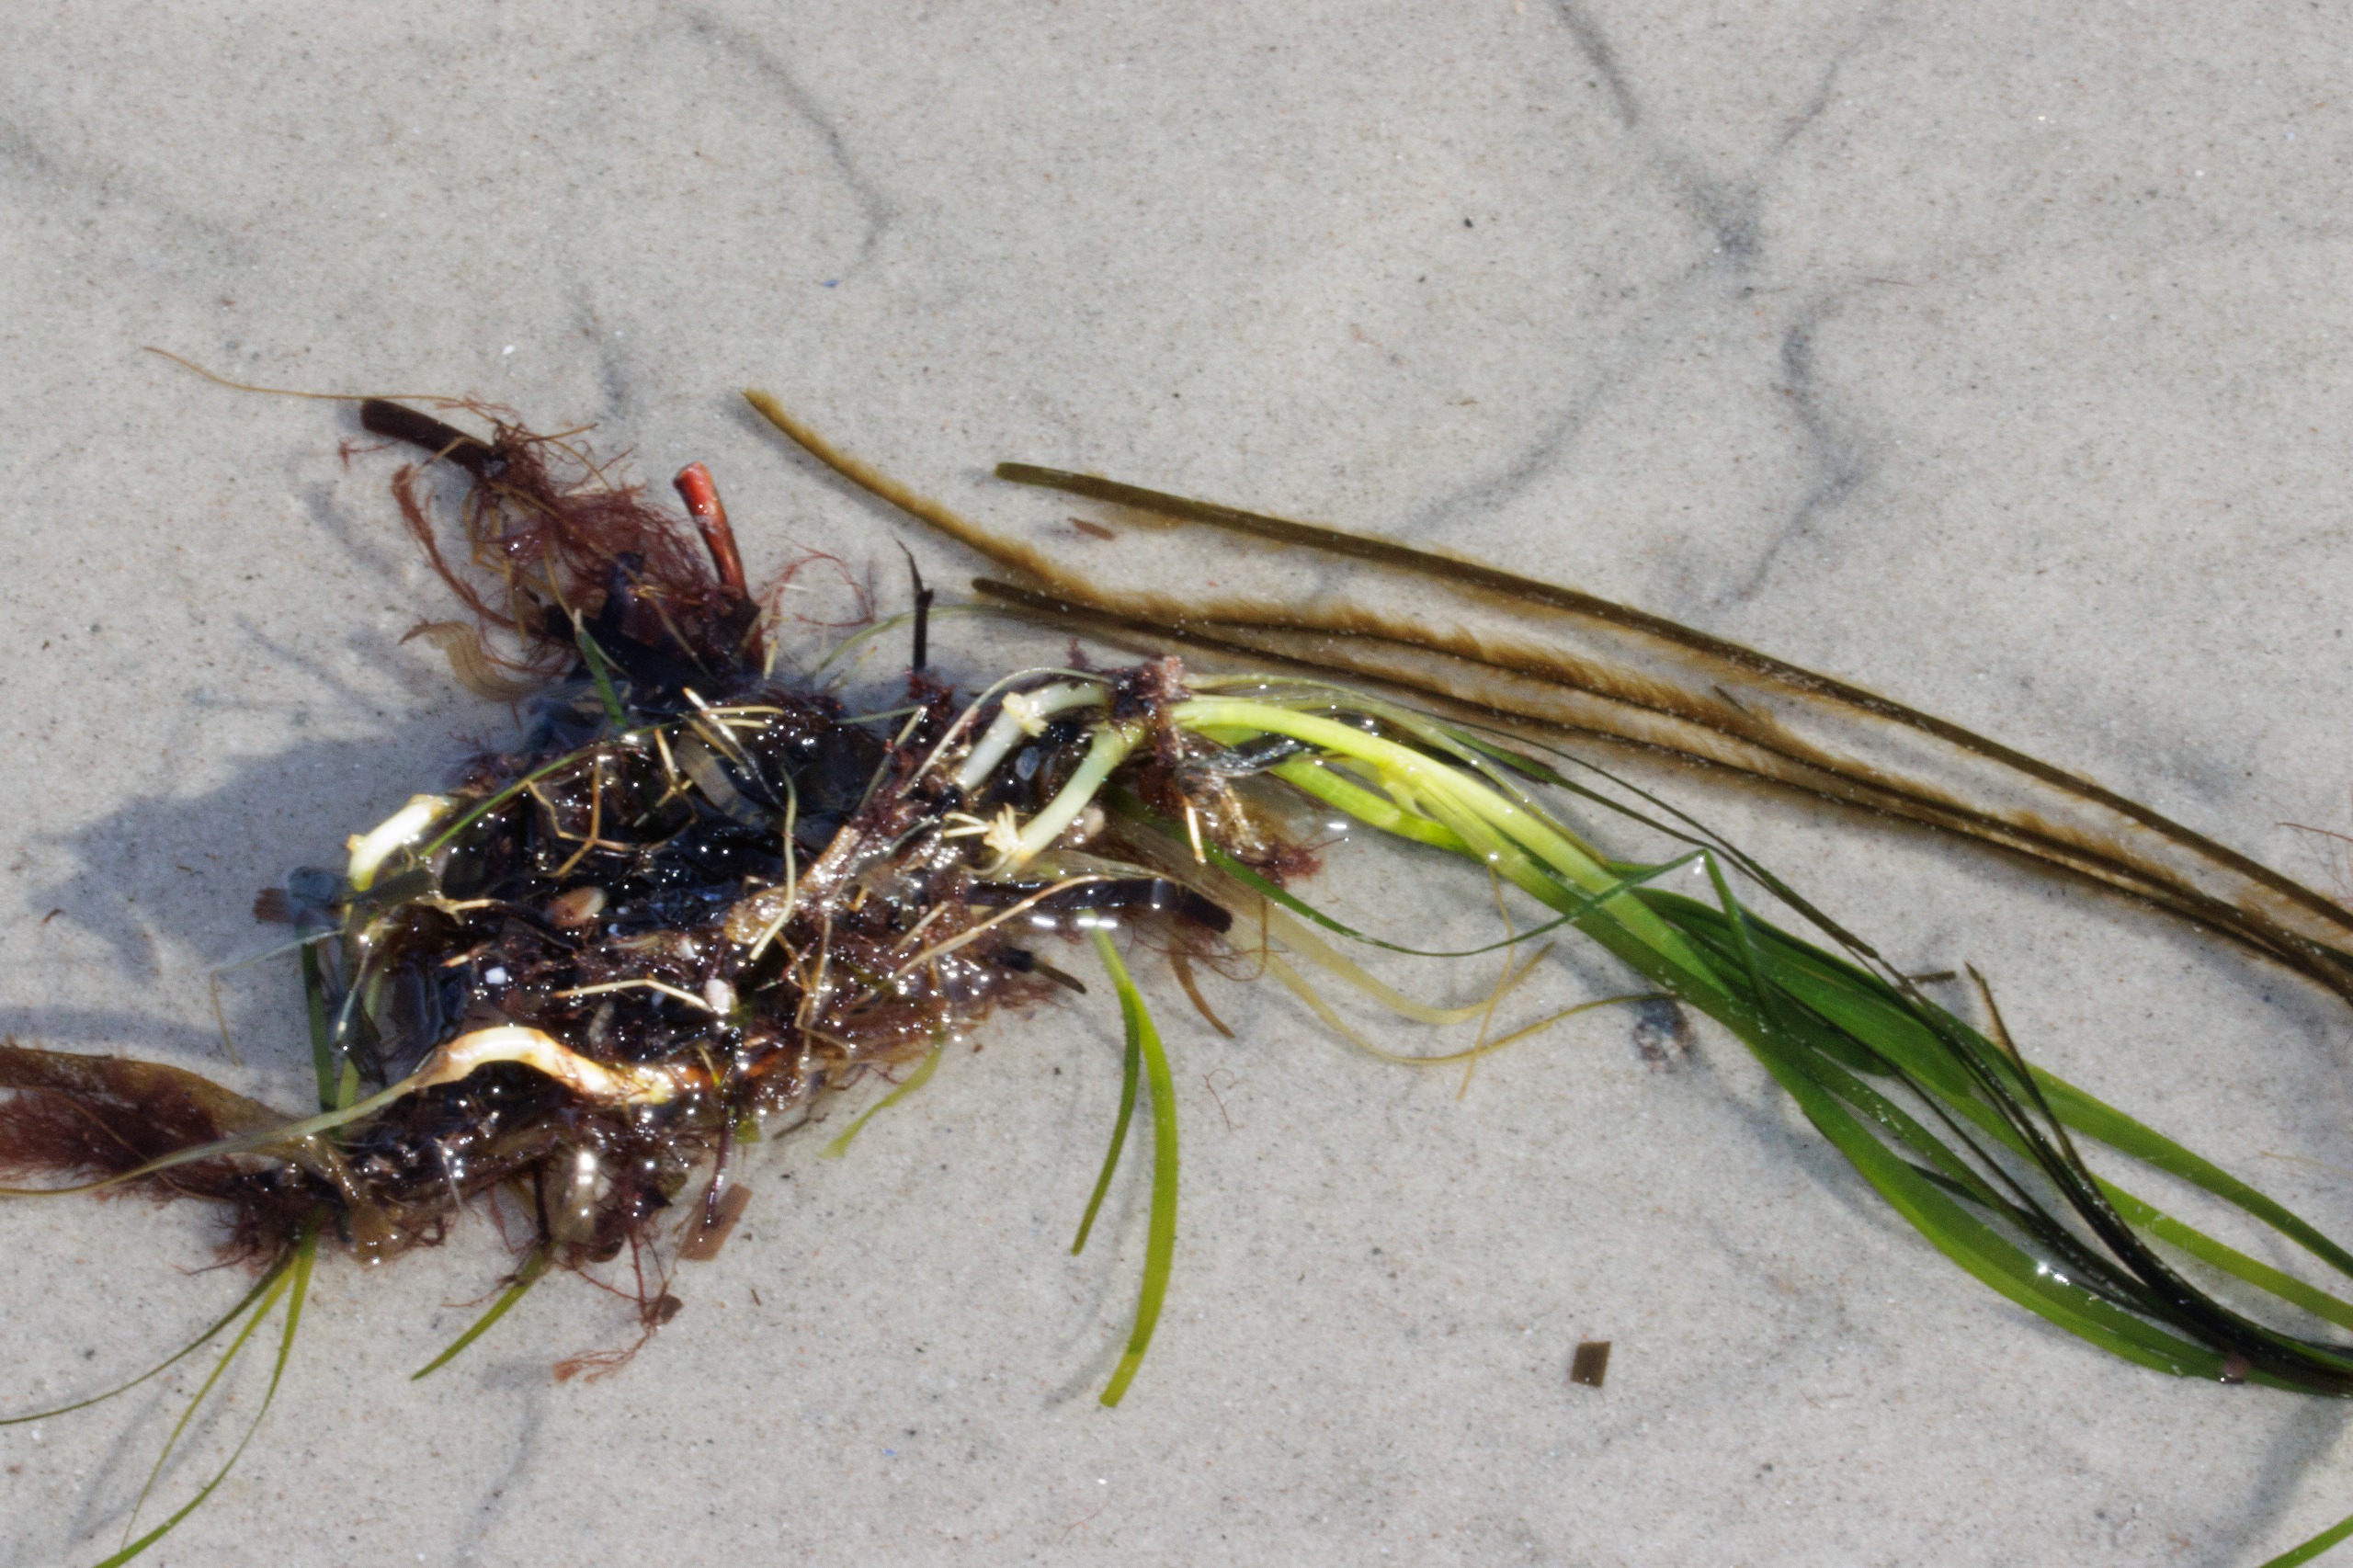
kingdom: Plantae
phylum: Tracheophyta
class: Liliopsida
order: Alismatales
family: Zosteraceae
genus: Zostera
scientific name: Zostera marina
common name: Almindelig bændeltang
